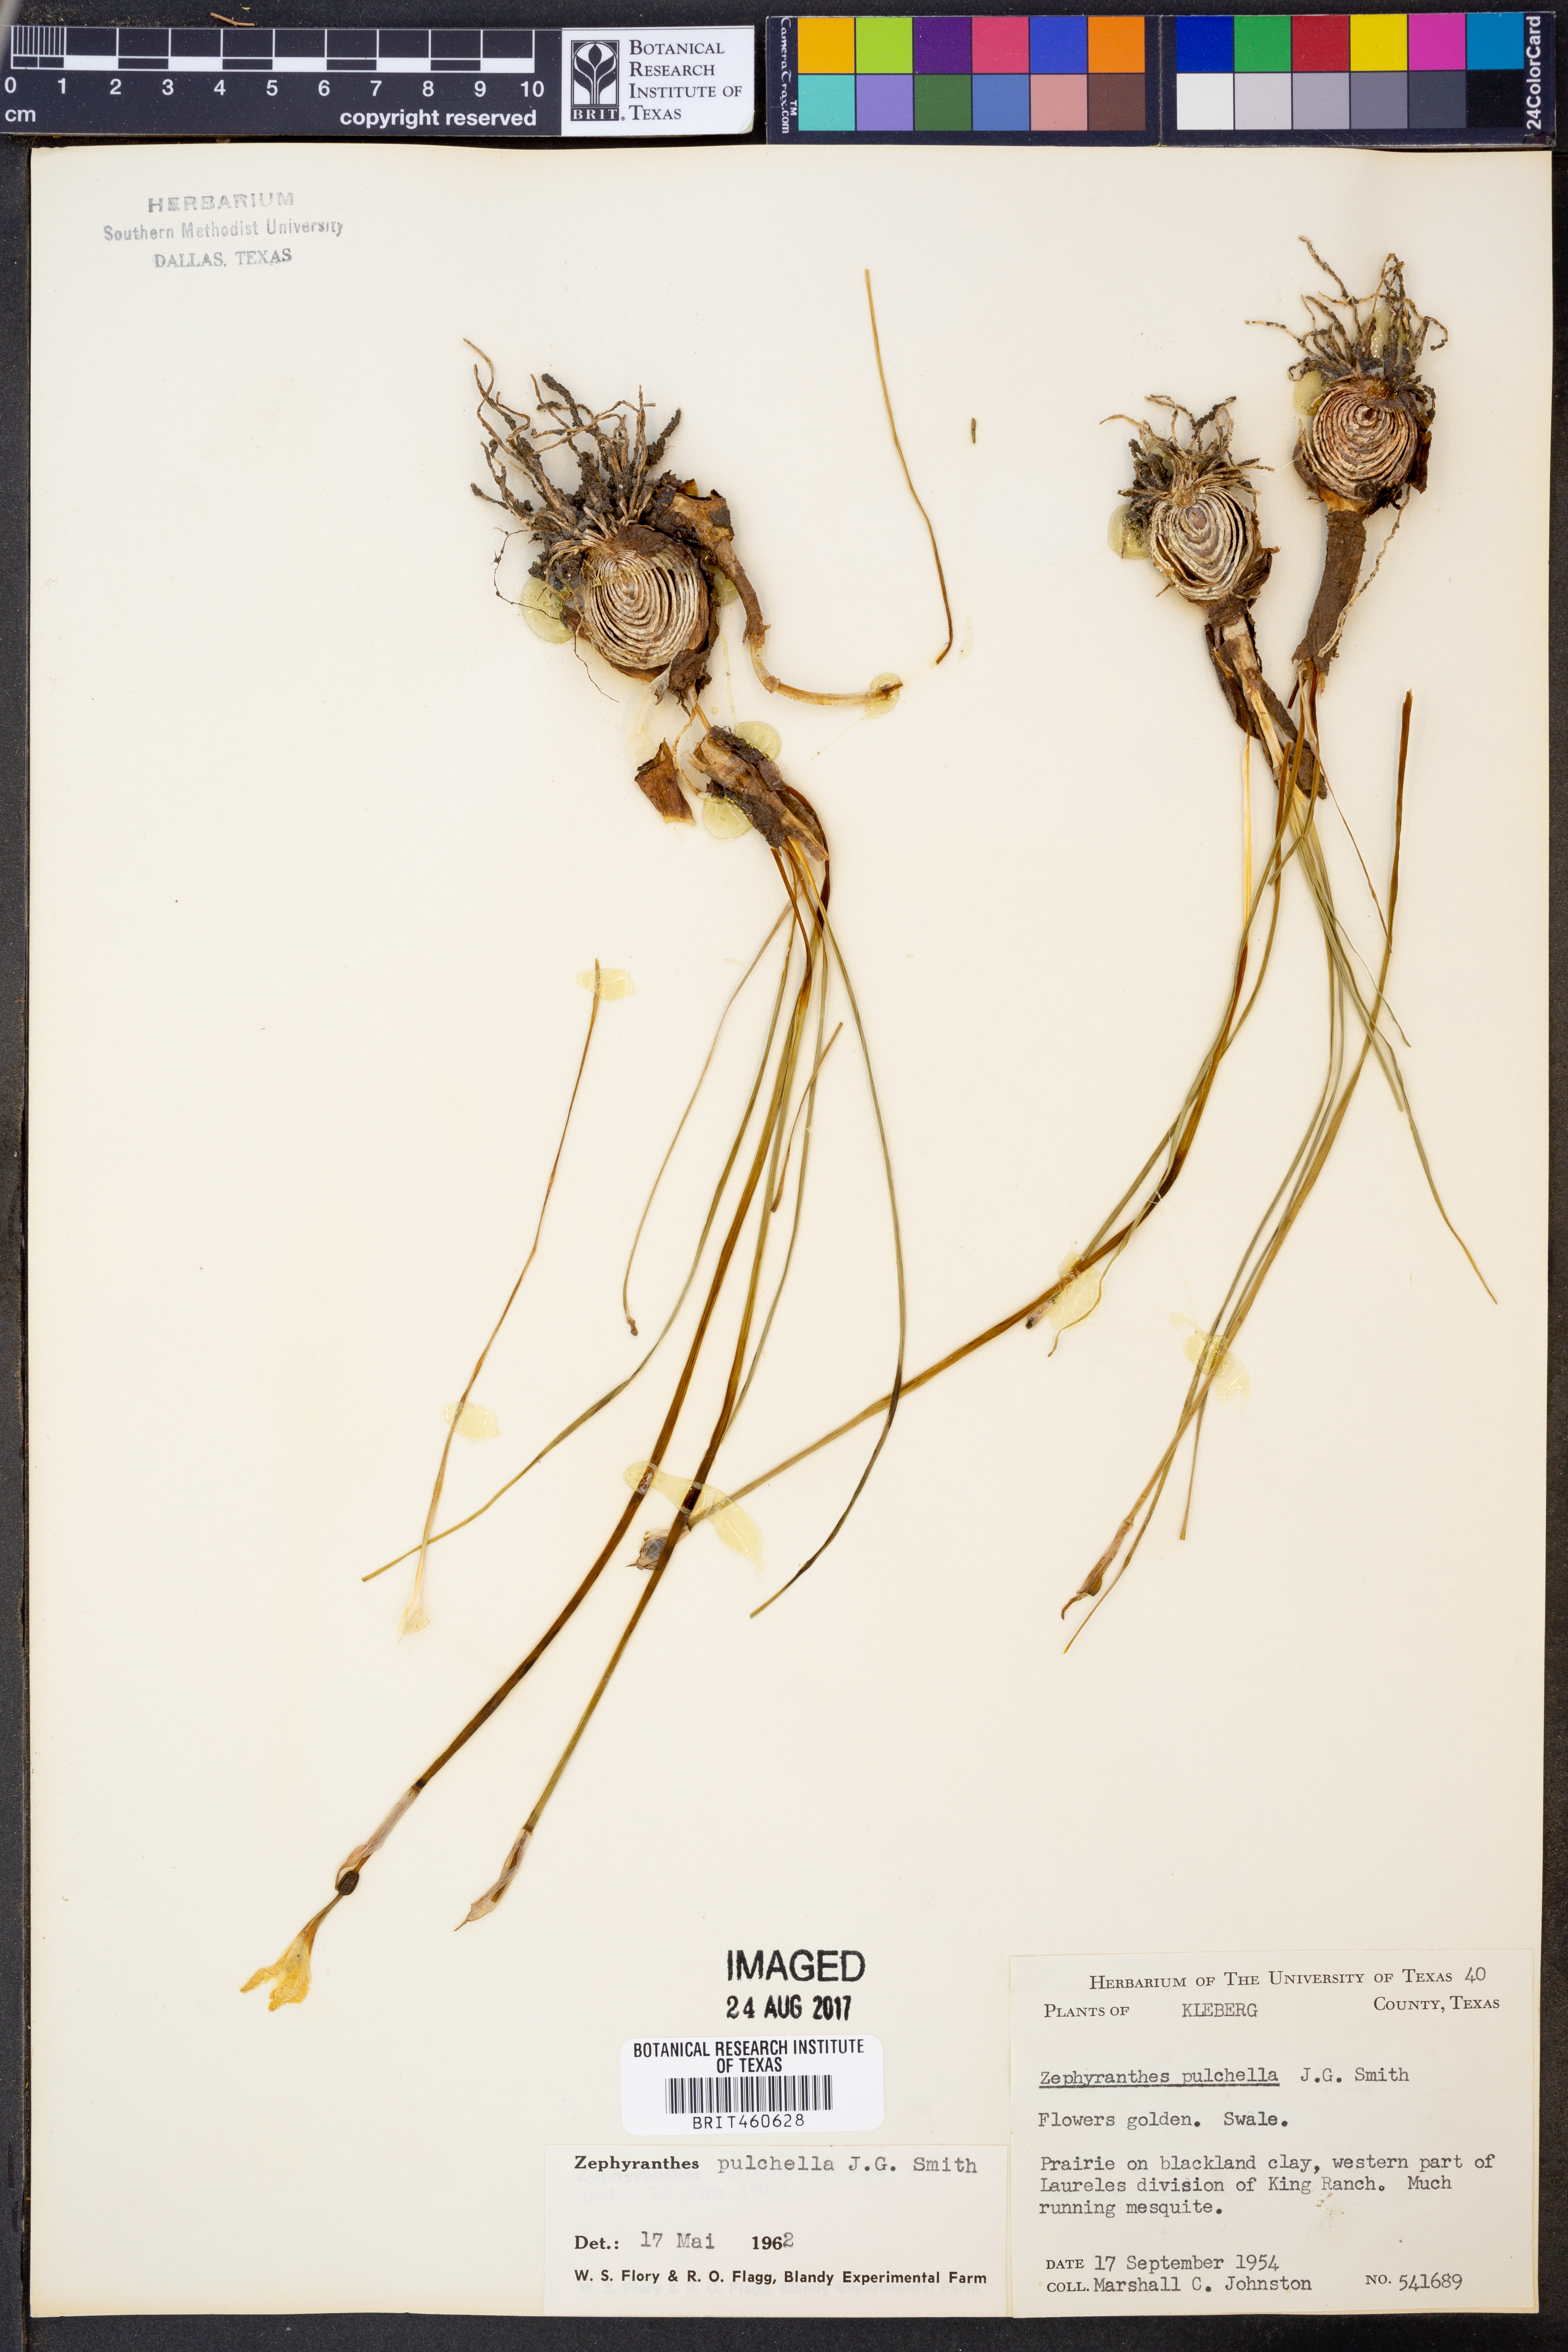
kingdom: Plantae
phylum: Tracheophyta
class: Liliopsida
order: Asparagales
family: Amaryllidaceae
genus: Zephyranthes
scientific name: Zephyranthes pulchella
